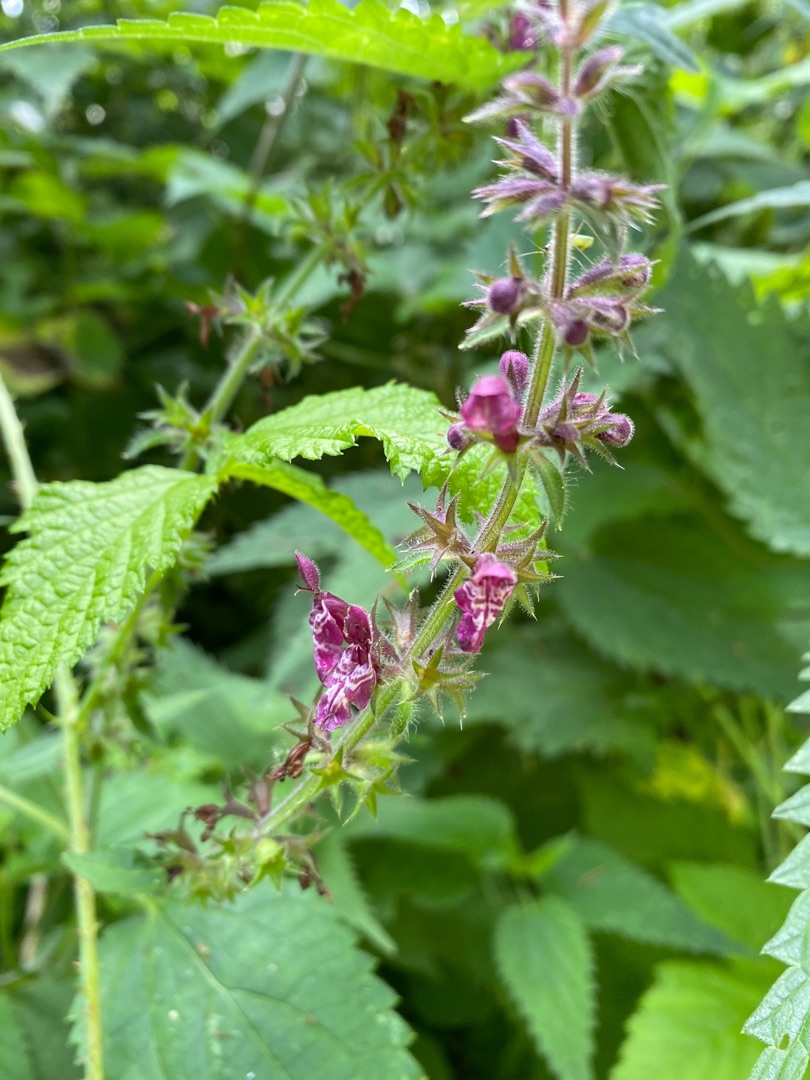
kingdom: Plantae
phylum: Tracheophyta
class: Magnoliopsida
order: Lamiales
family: Lamiaceae
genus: Stachys
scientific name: Stachys sylvatica
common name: Skov-galtetand
